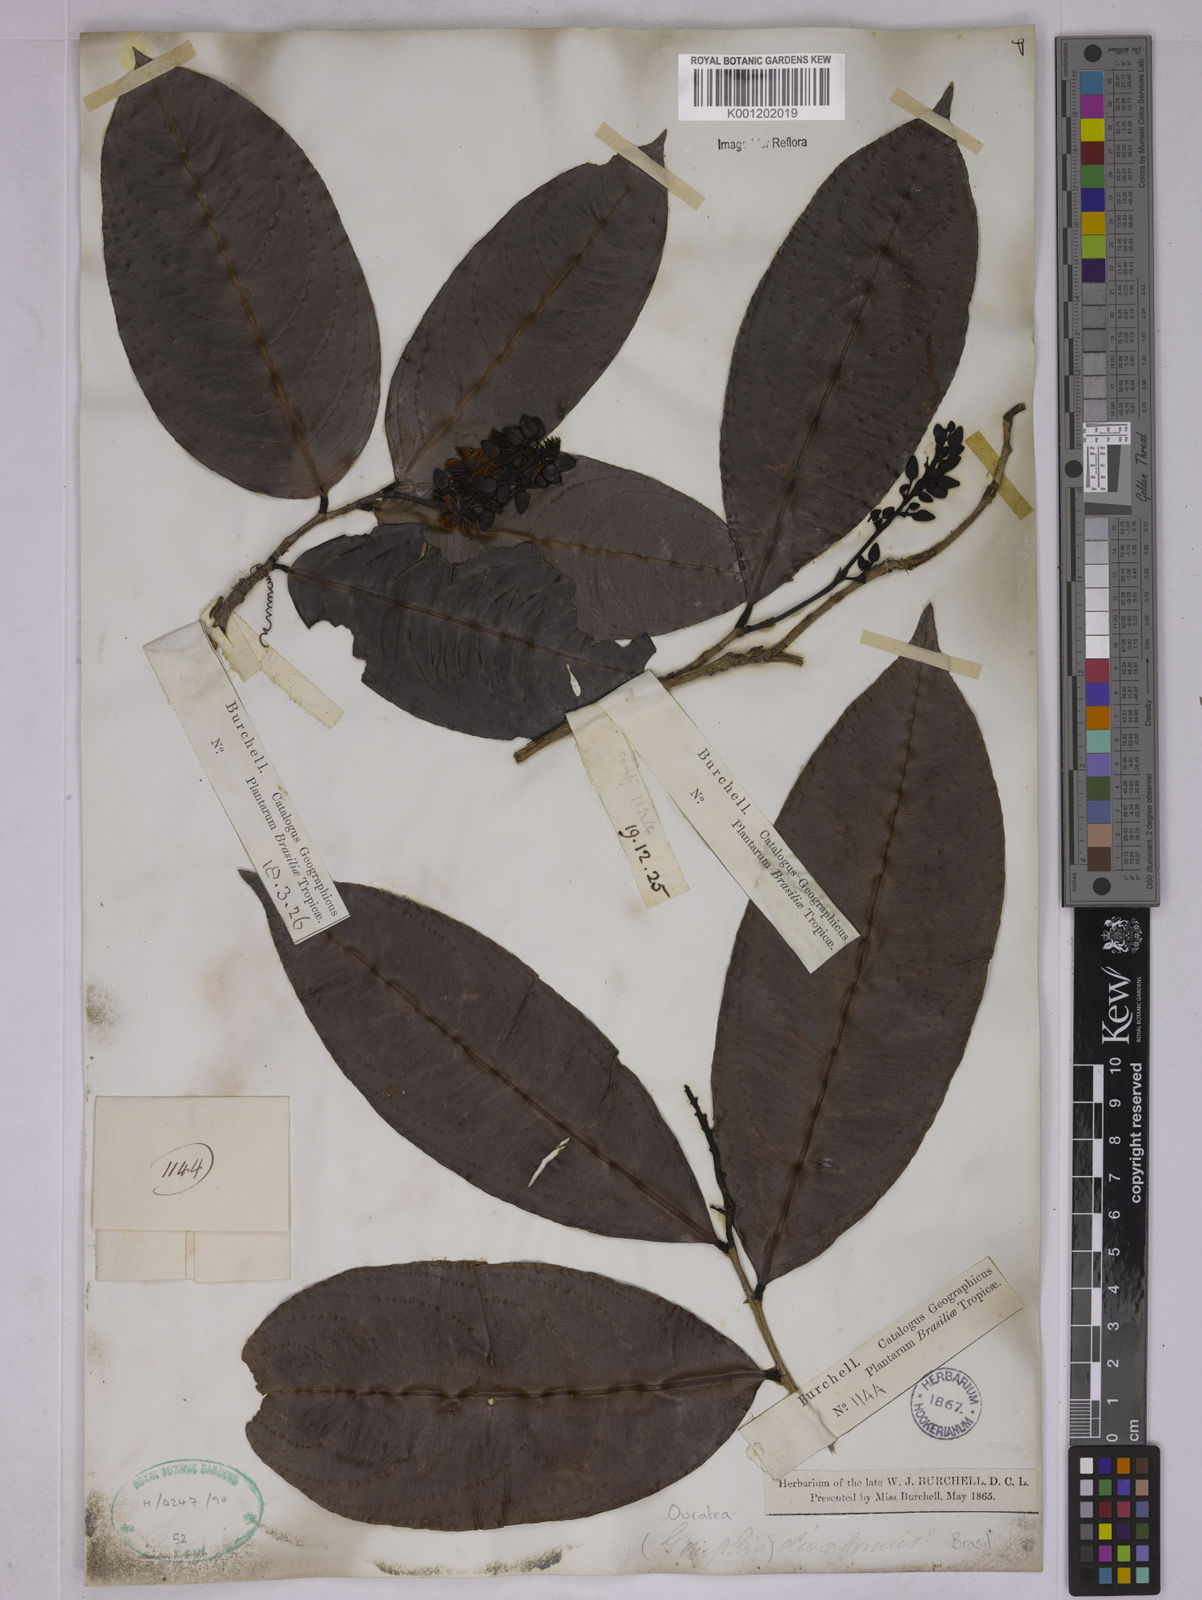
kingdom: Plantae
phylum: Tracheophyta
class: Magnoliopsida
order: Malpighiales
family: Ochnaceae
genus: Ouratea
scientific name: Ouratea oliviformis
